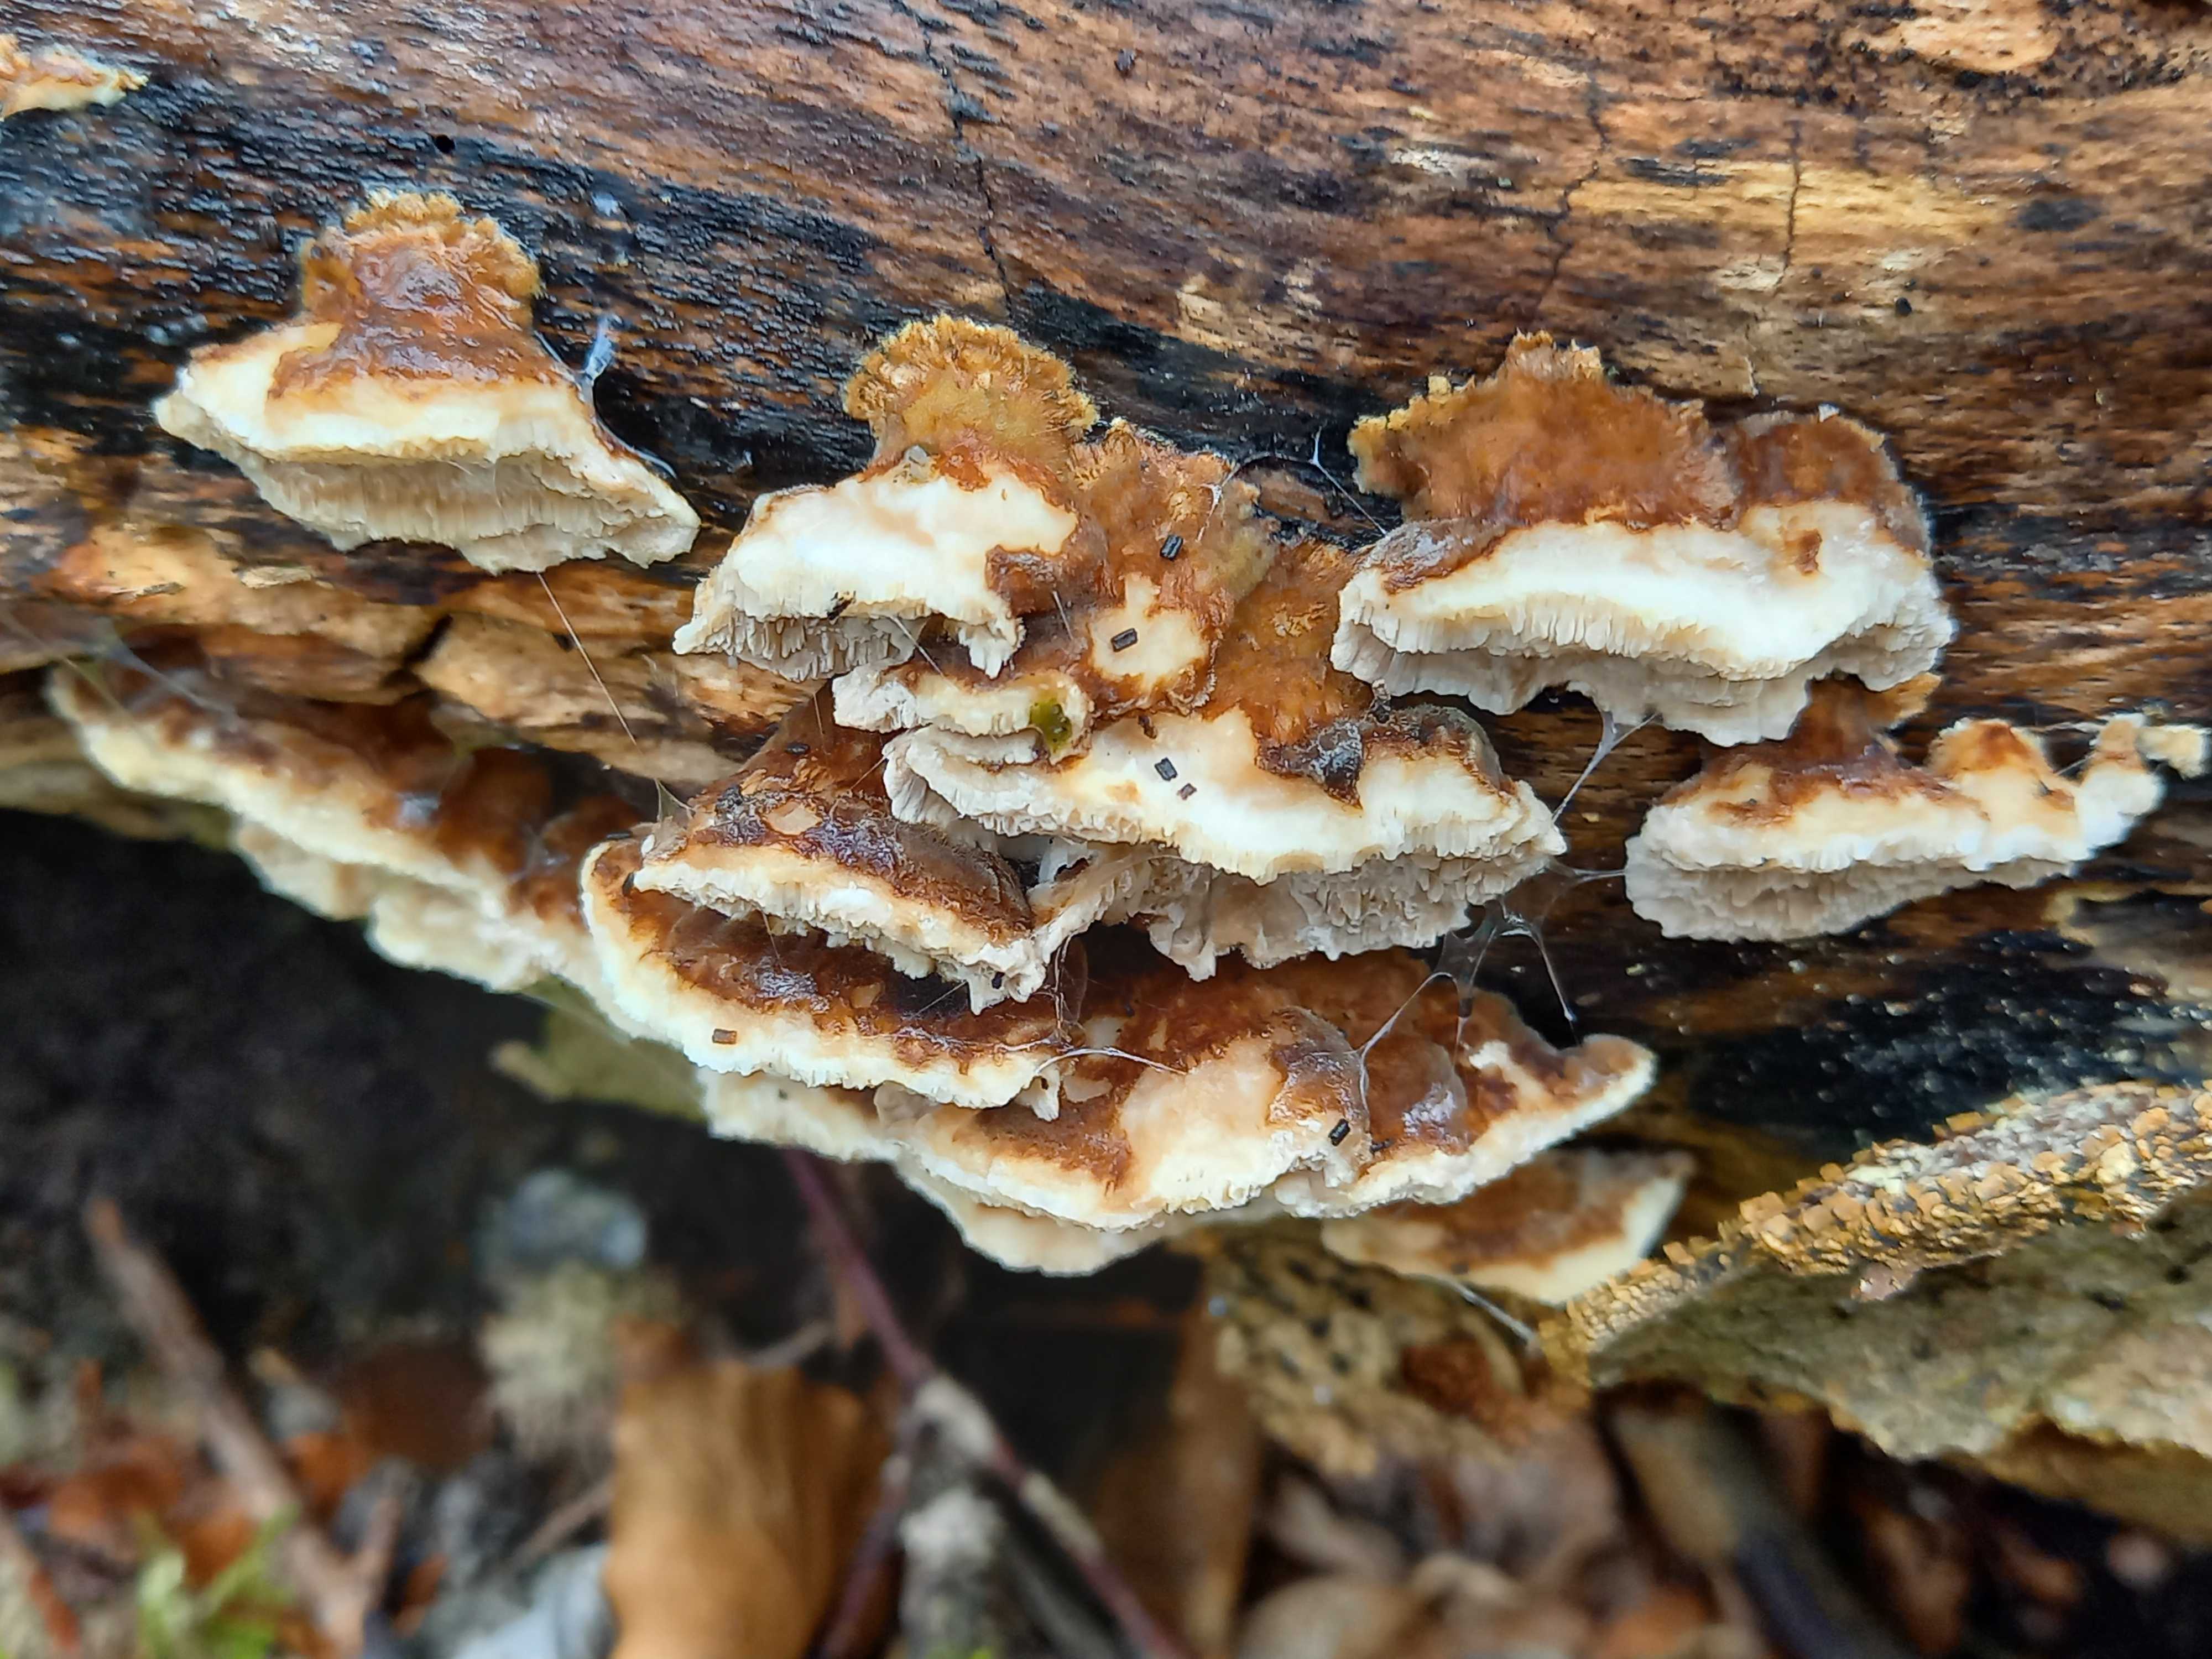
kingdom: Fungi
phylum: Basidiomycota
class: Agaricomycetes
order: Polyporales
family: Polyporaceae
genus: Trametes
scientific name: Trametes
